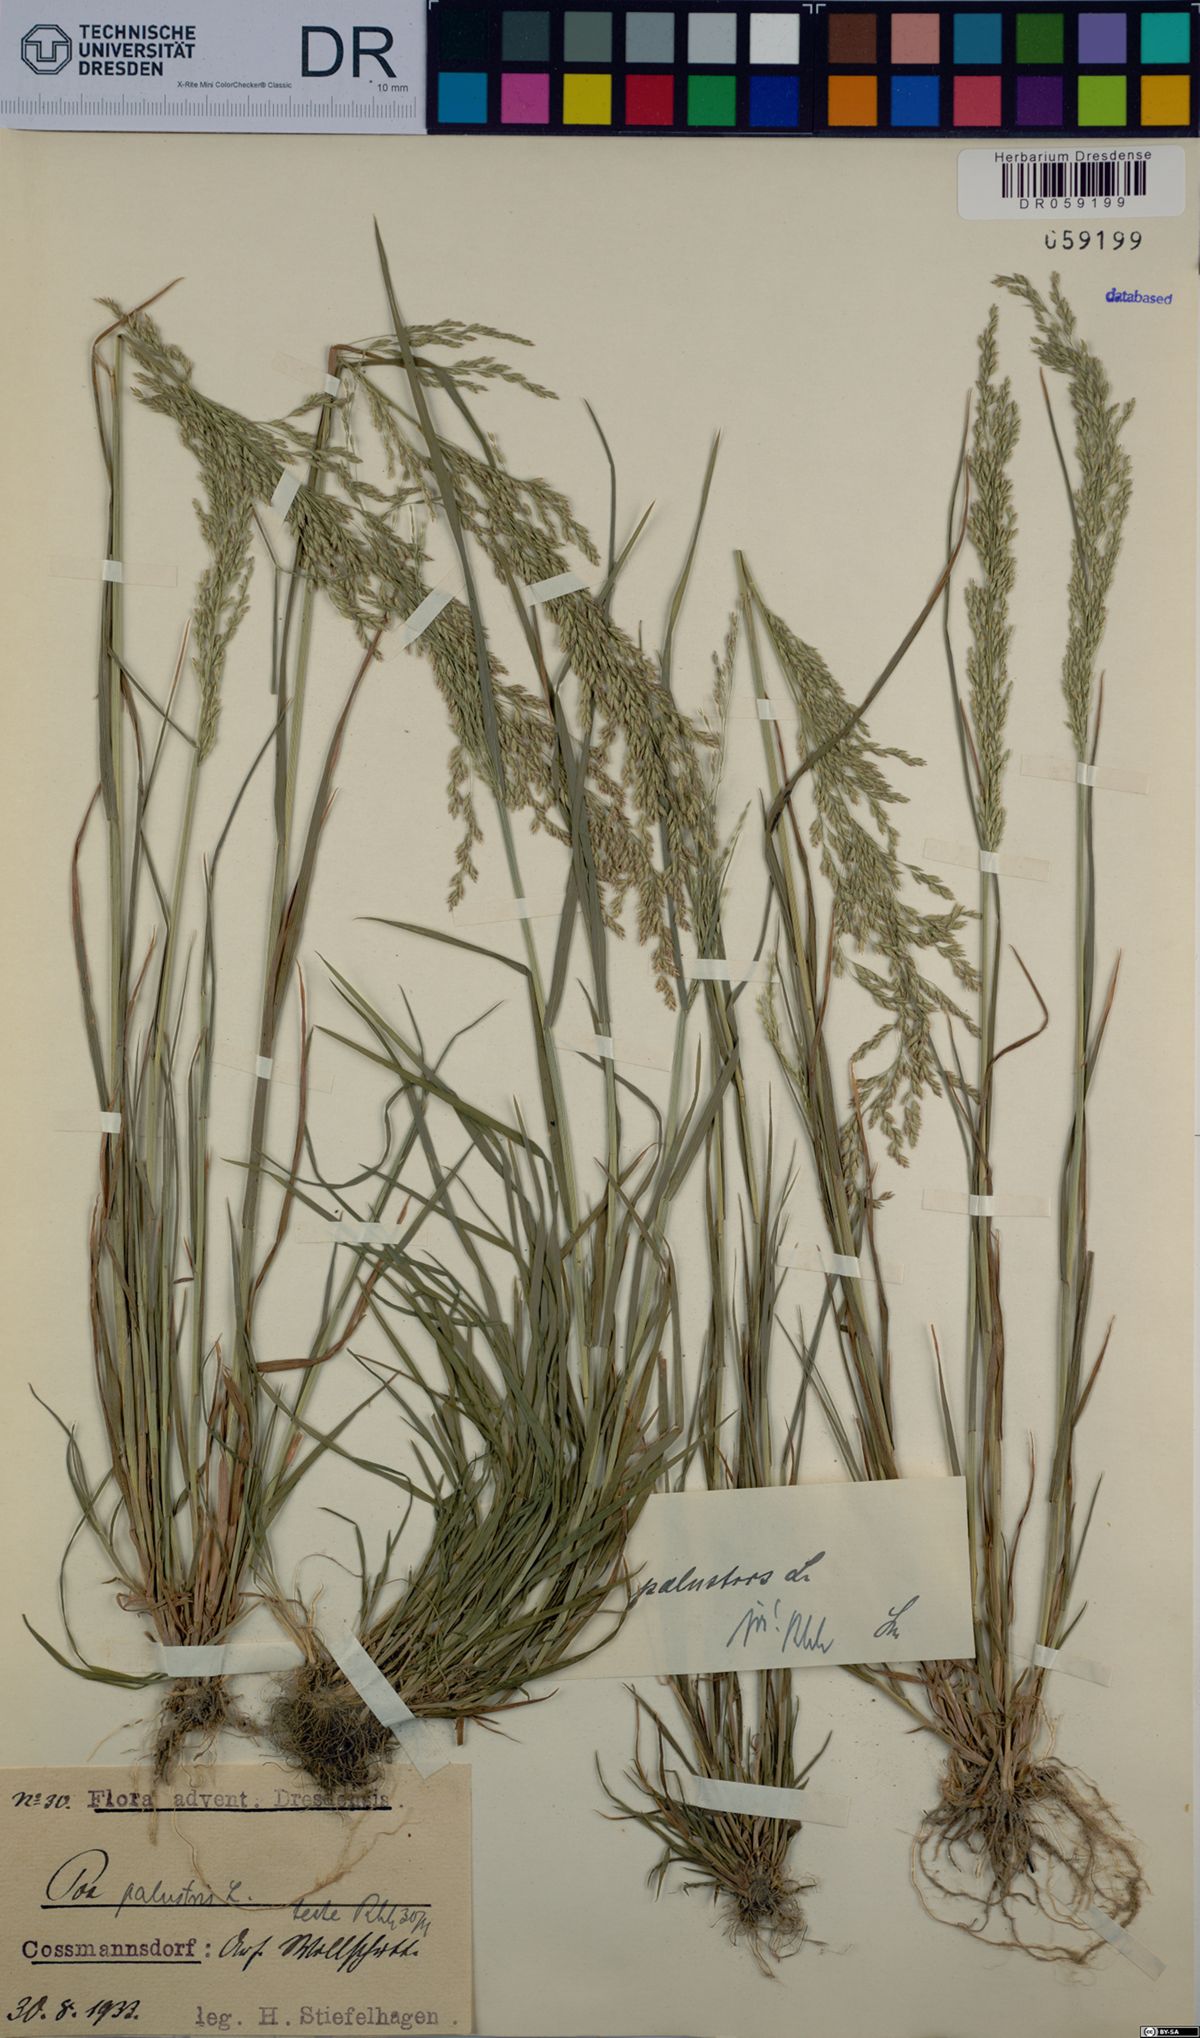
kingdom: Plantae
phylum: Tracheophyta
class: Liliopsida
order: Poales
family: Poaceae
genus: Poa
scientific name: Poa palustris
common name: Swamp meadow-grass
